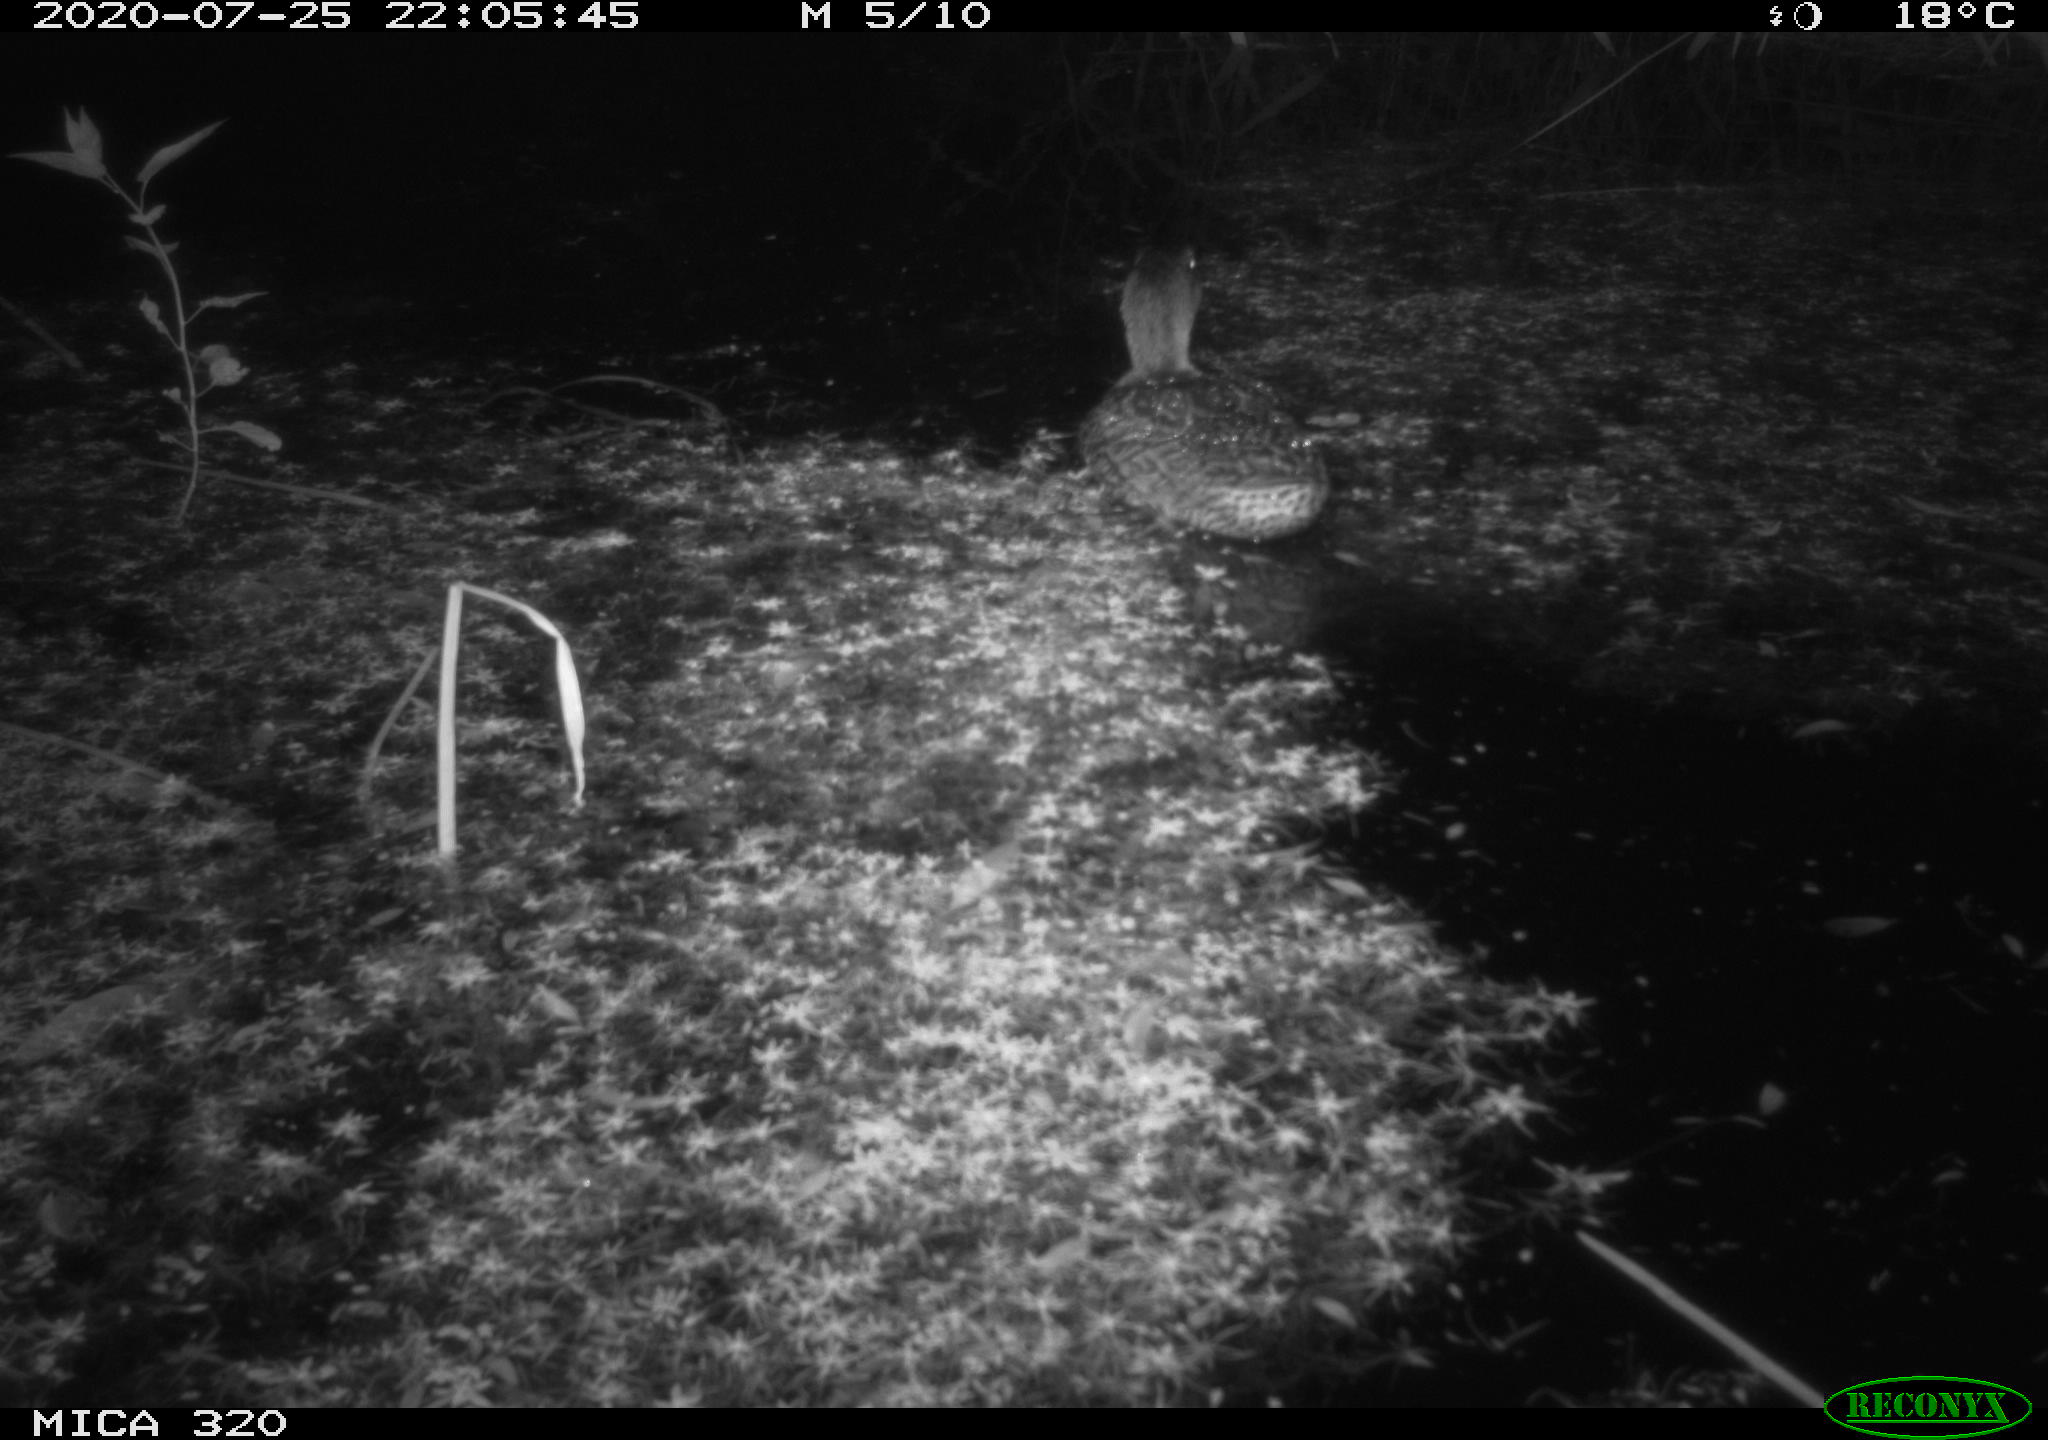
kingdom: Animalia
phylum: Chordata
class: Aves
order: Anseriformes
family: Anatidae
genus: Anas
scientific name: Anas platyrhynchos
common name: Mallard
